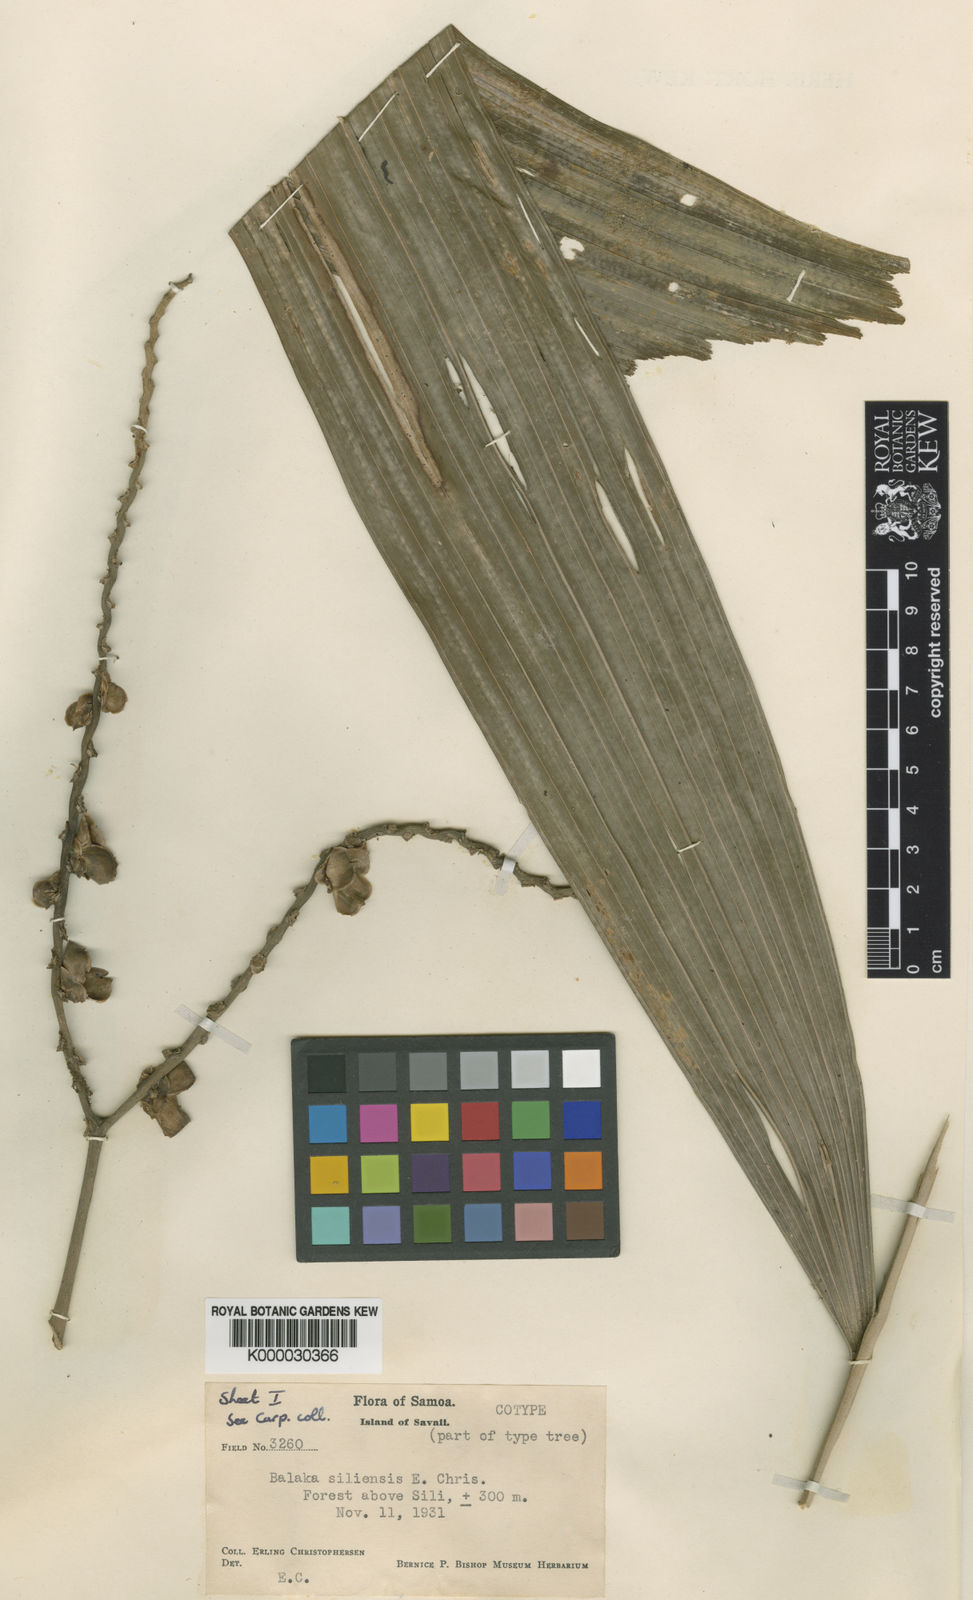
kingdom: Plantae
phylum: Tracheophyta
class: Liliopsida
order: Arecales
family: Arecaceae
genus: Balaka
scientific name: Balaka samoensis
